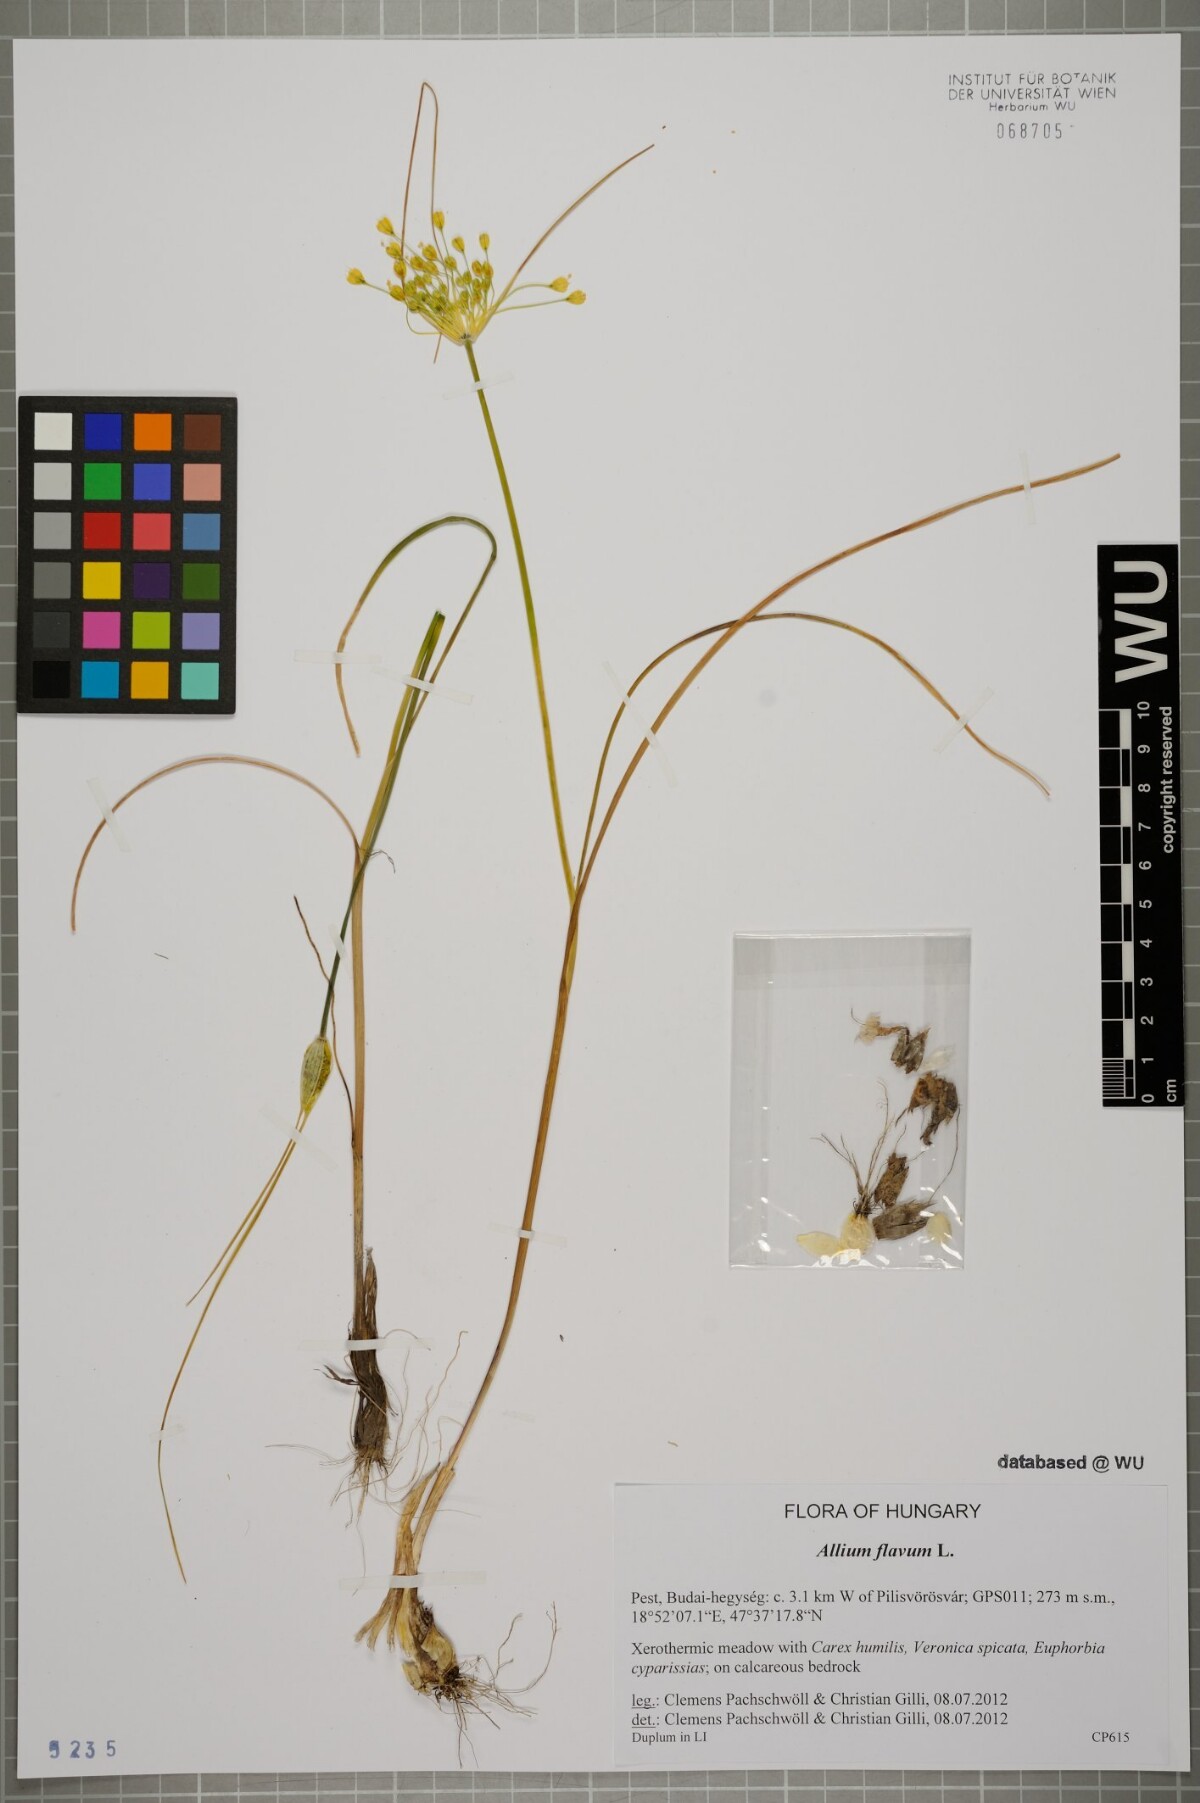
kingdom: Plantae
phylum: Tracheophyta
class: Liliopsida
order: Asparagales
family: Amaryllidaceae
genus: Allium
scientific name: Allium flavum
